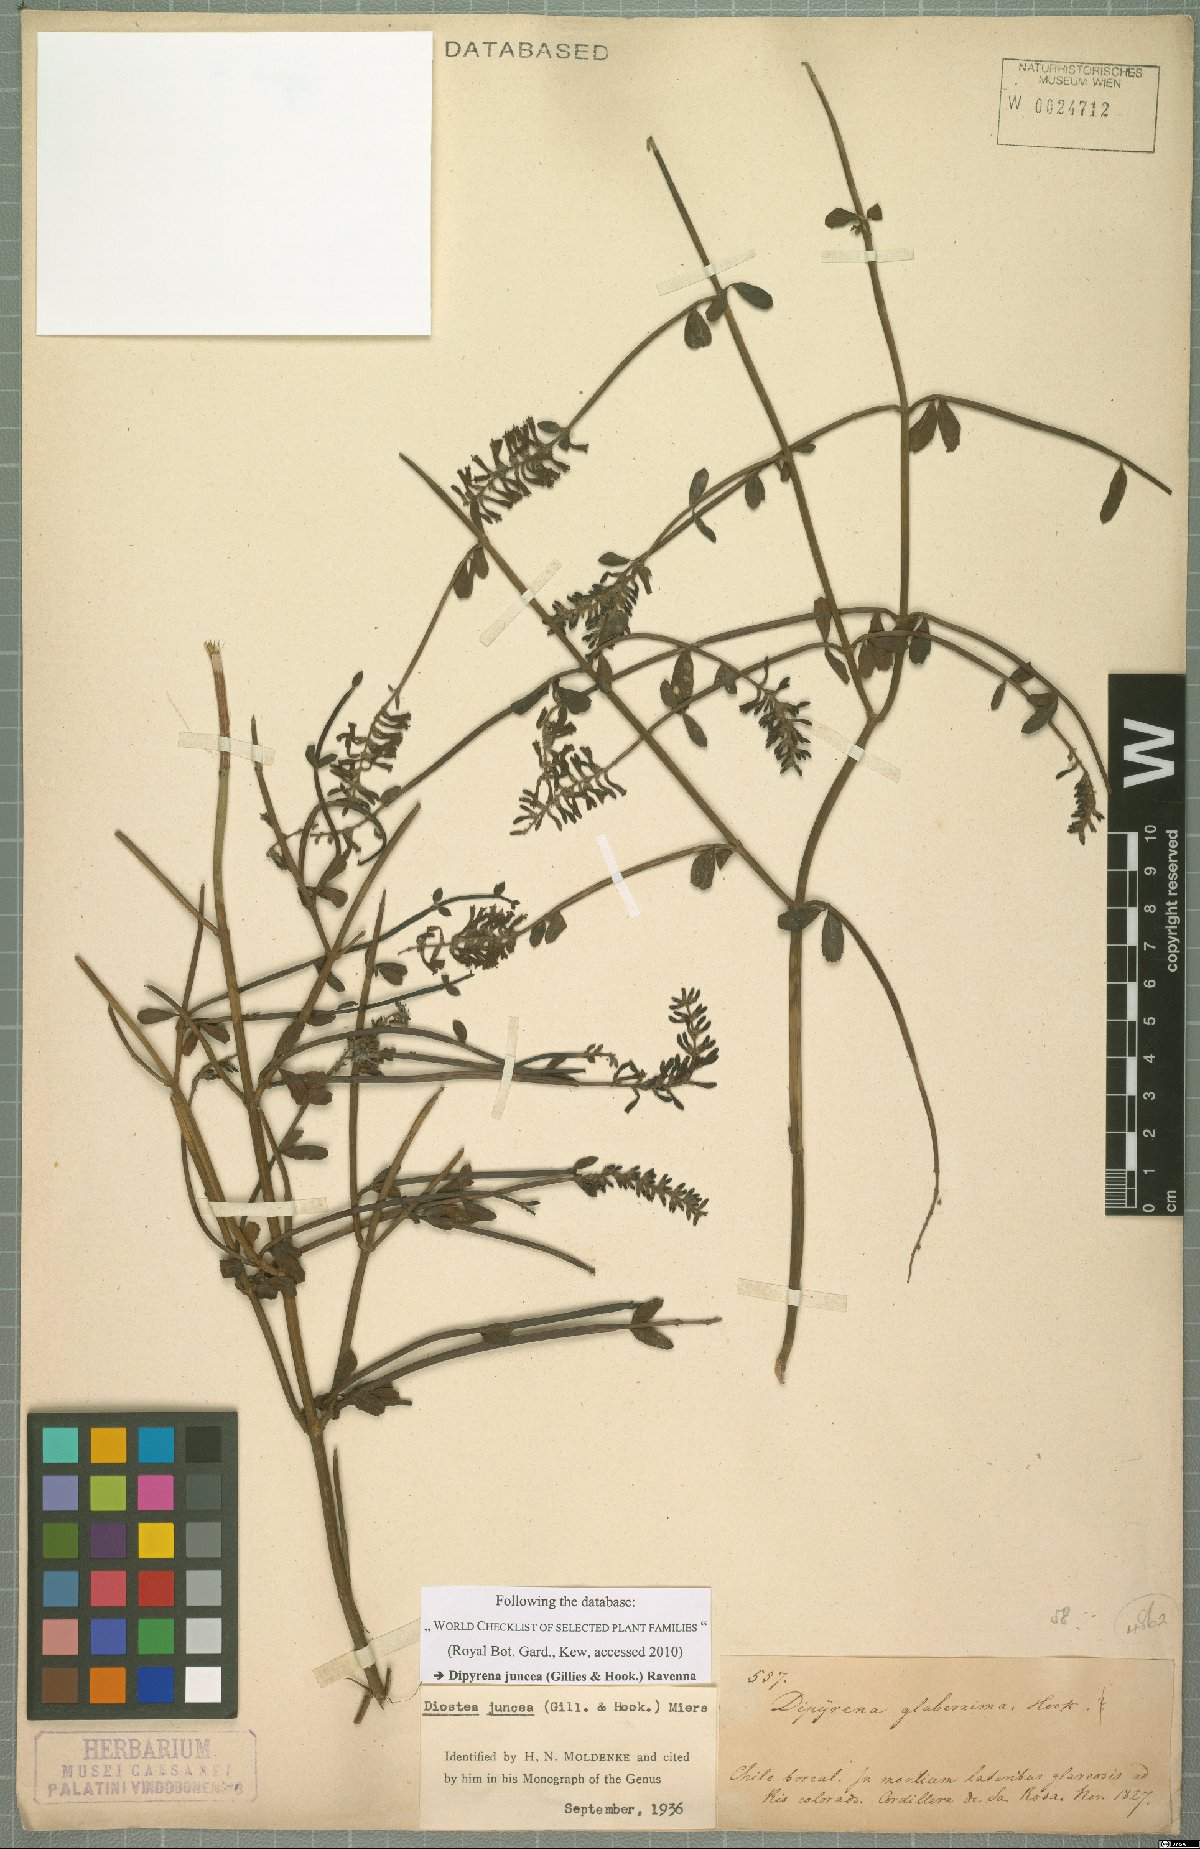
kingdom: Plantae
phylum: Tracheophyta
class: Magnoliopsida
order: Lamiales
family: Verbenaceae
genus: Diostea
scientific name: Diostea juncea
